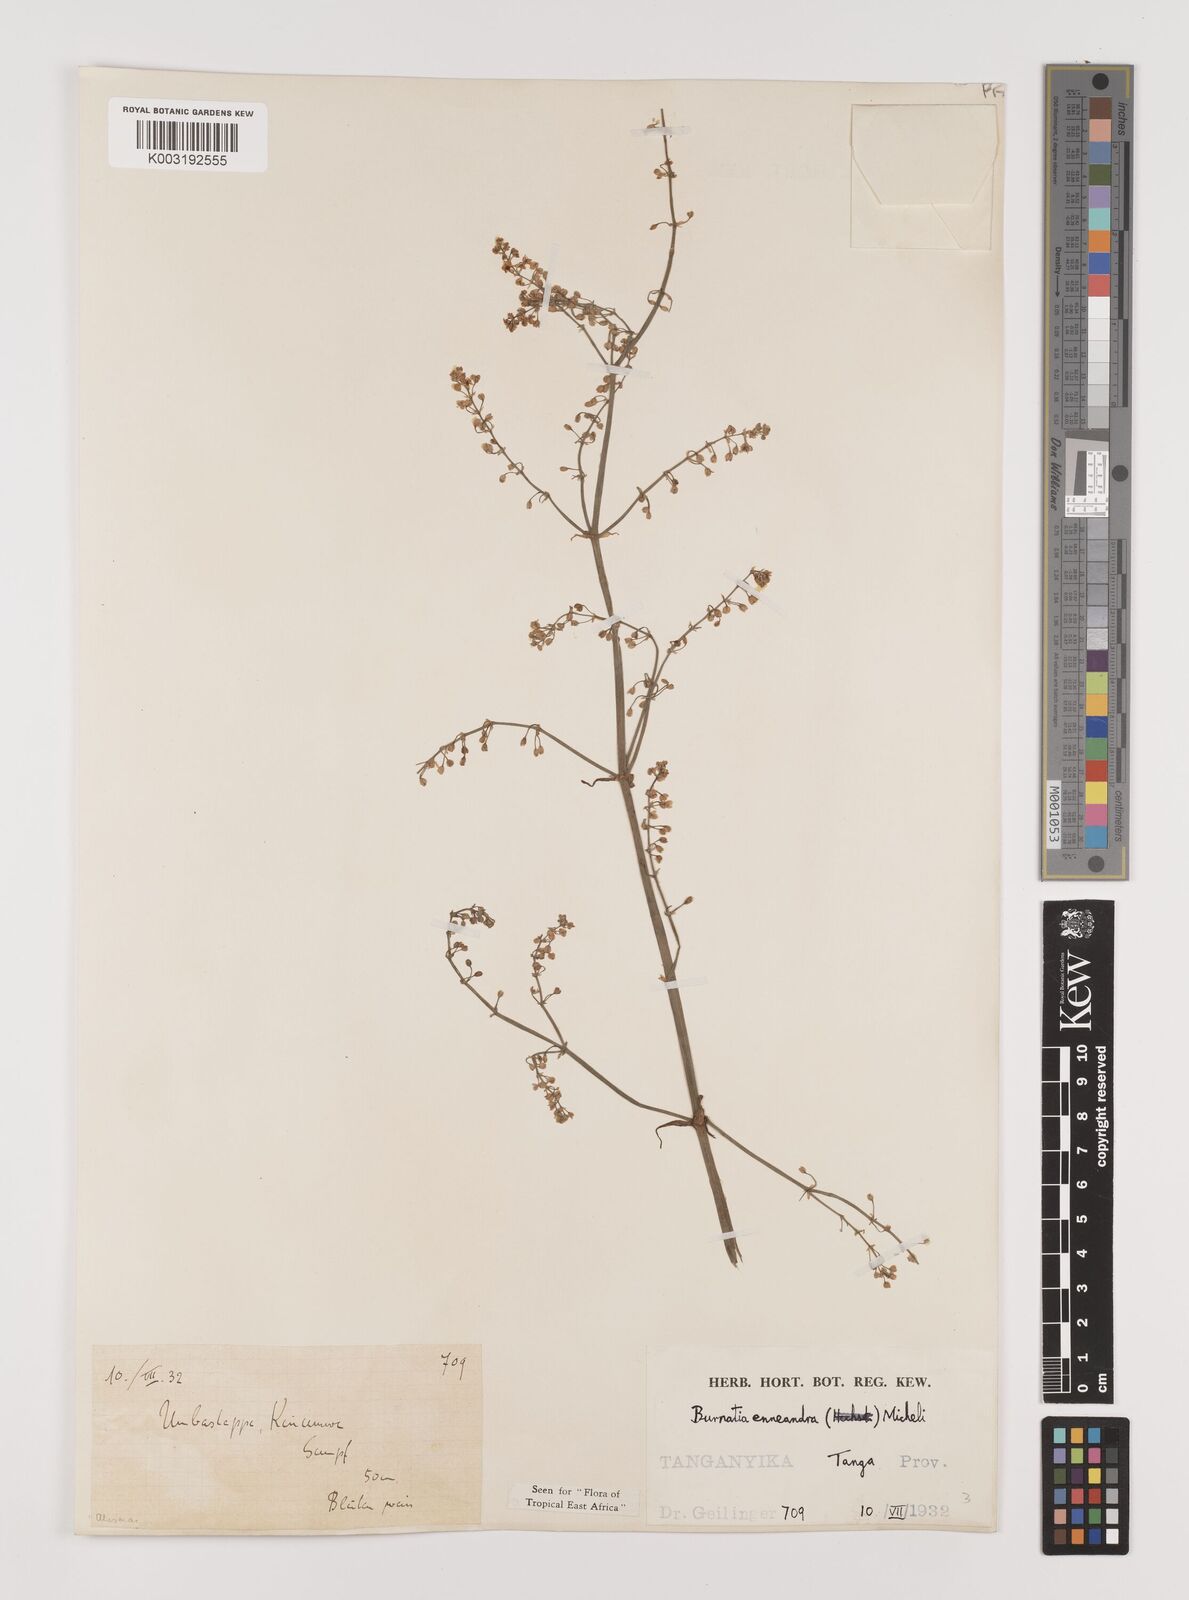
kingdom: Plantae
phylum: Tracheophyta
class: Liliopsida
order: Alismatales
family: Alismataceae
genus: Burnatia
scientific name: Burnatia enneandra
